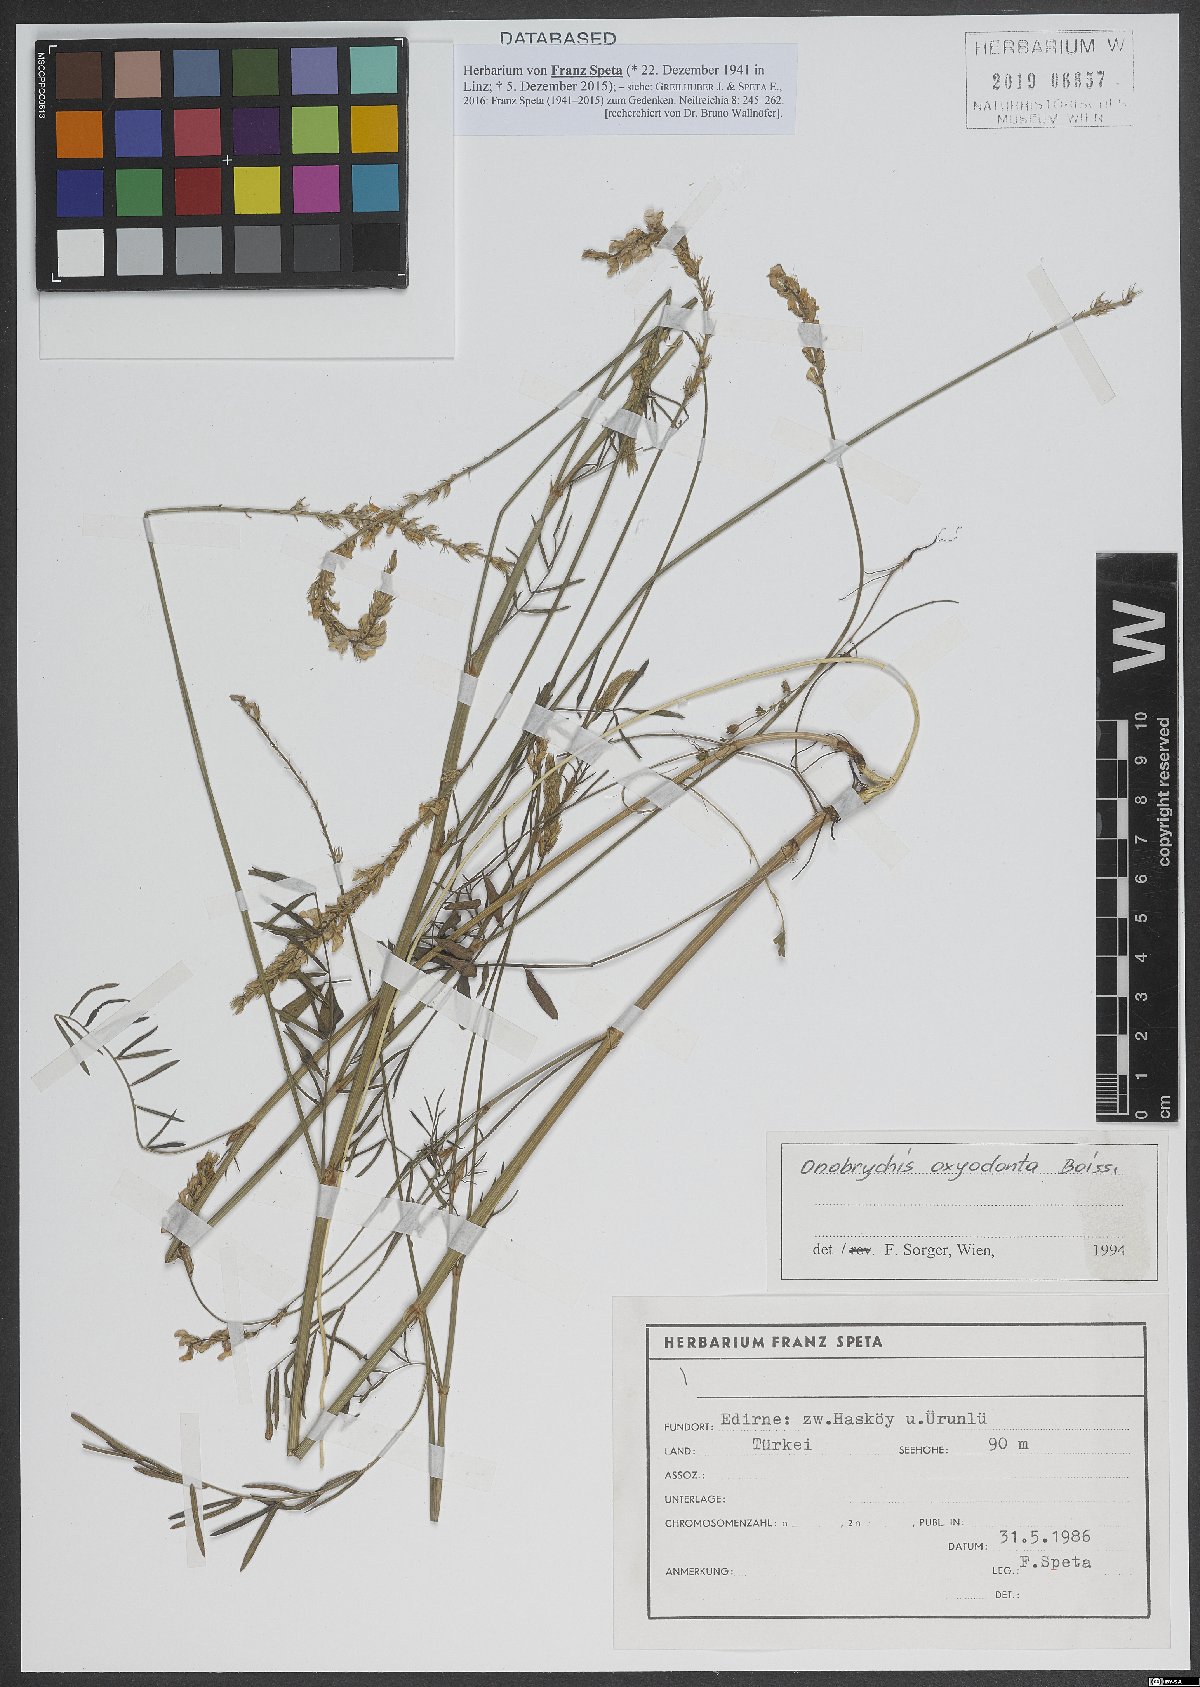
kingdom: Plantae
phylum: Tracheophyta
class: Magnoliopsida
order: Fabales
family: Fabaceae
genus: Onobrychis
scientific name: Onobrychis oxyodonta
